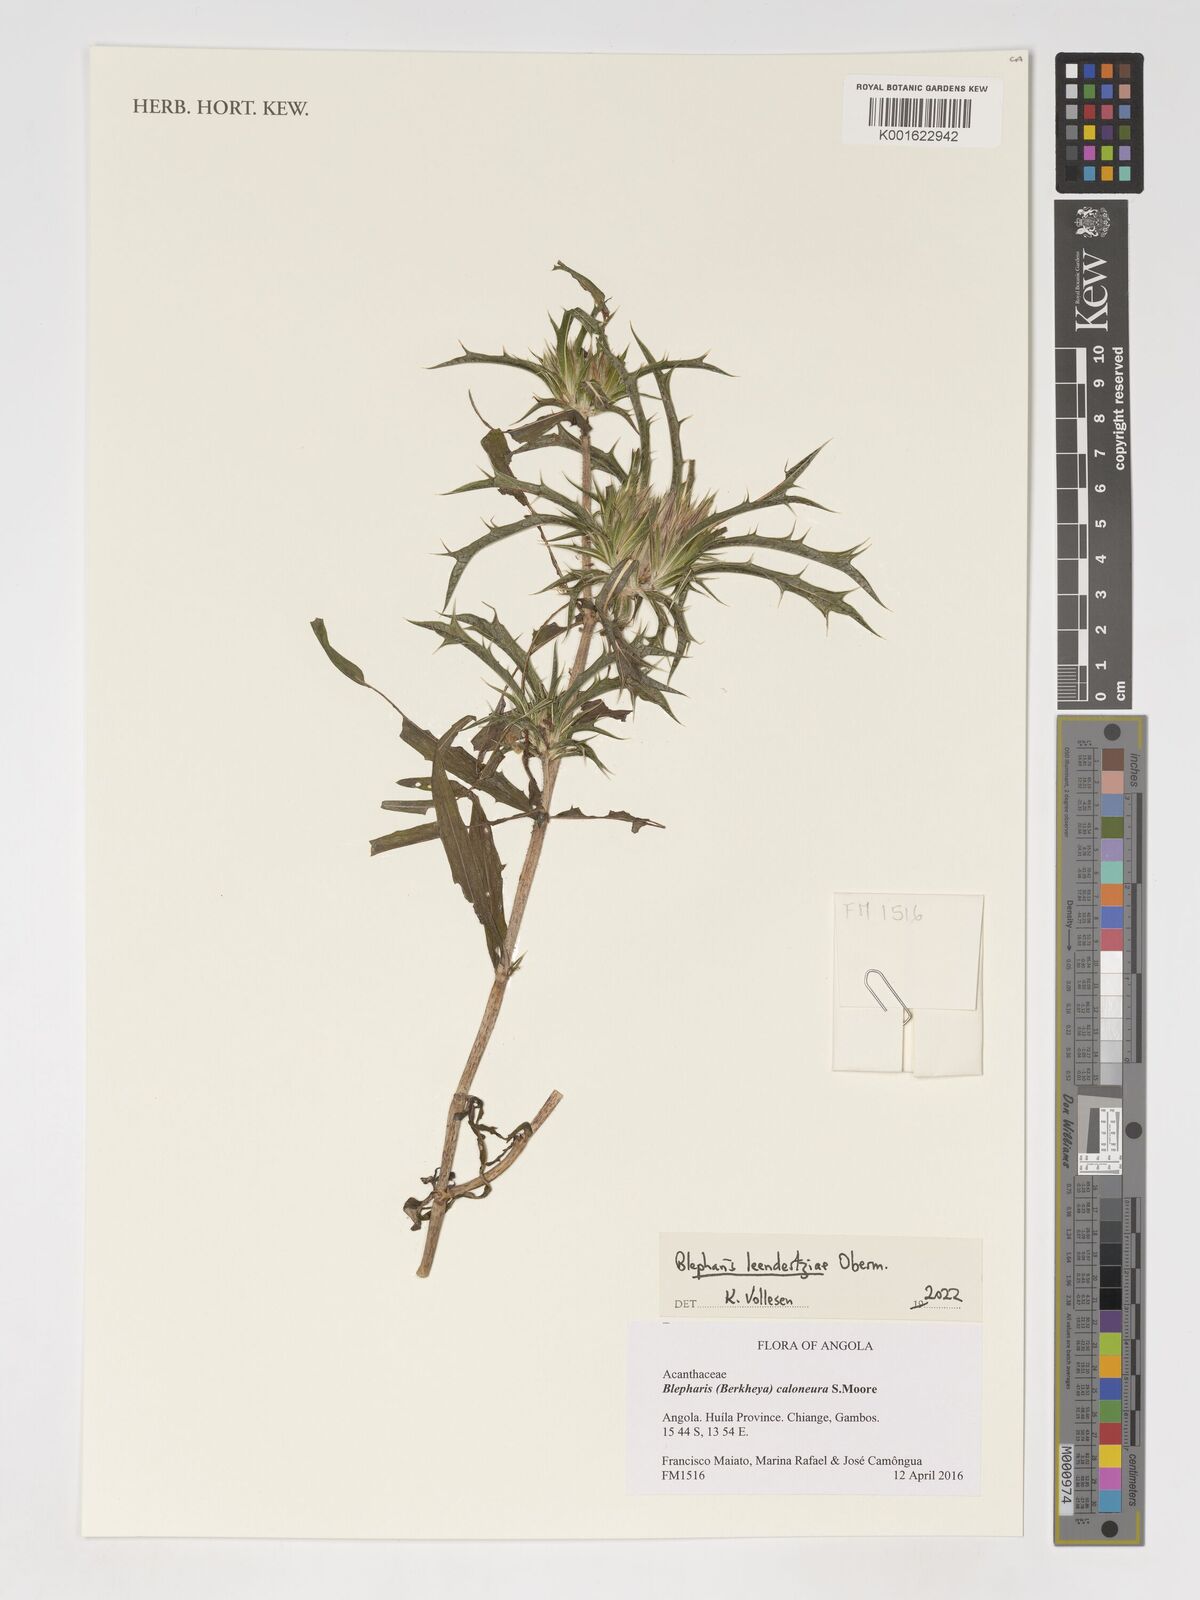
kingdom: Plantae
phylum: Tracheophyta
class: Magnoliopsida
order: Lamiales
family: Acanthaceae
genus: Blepharis
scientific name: Blepharis leendertziae
